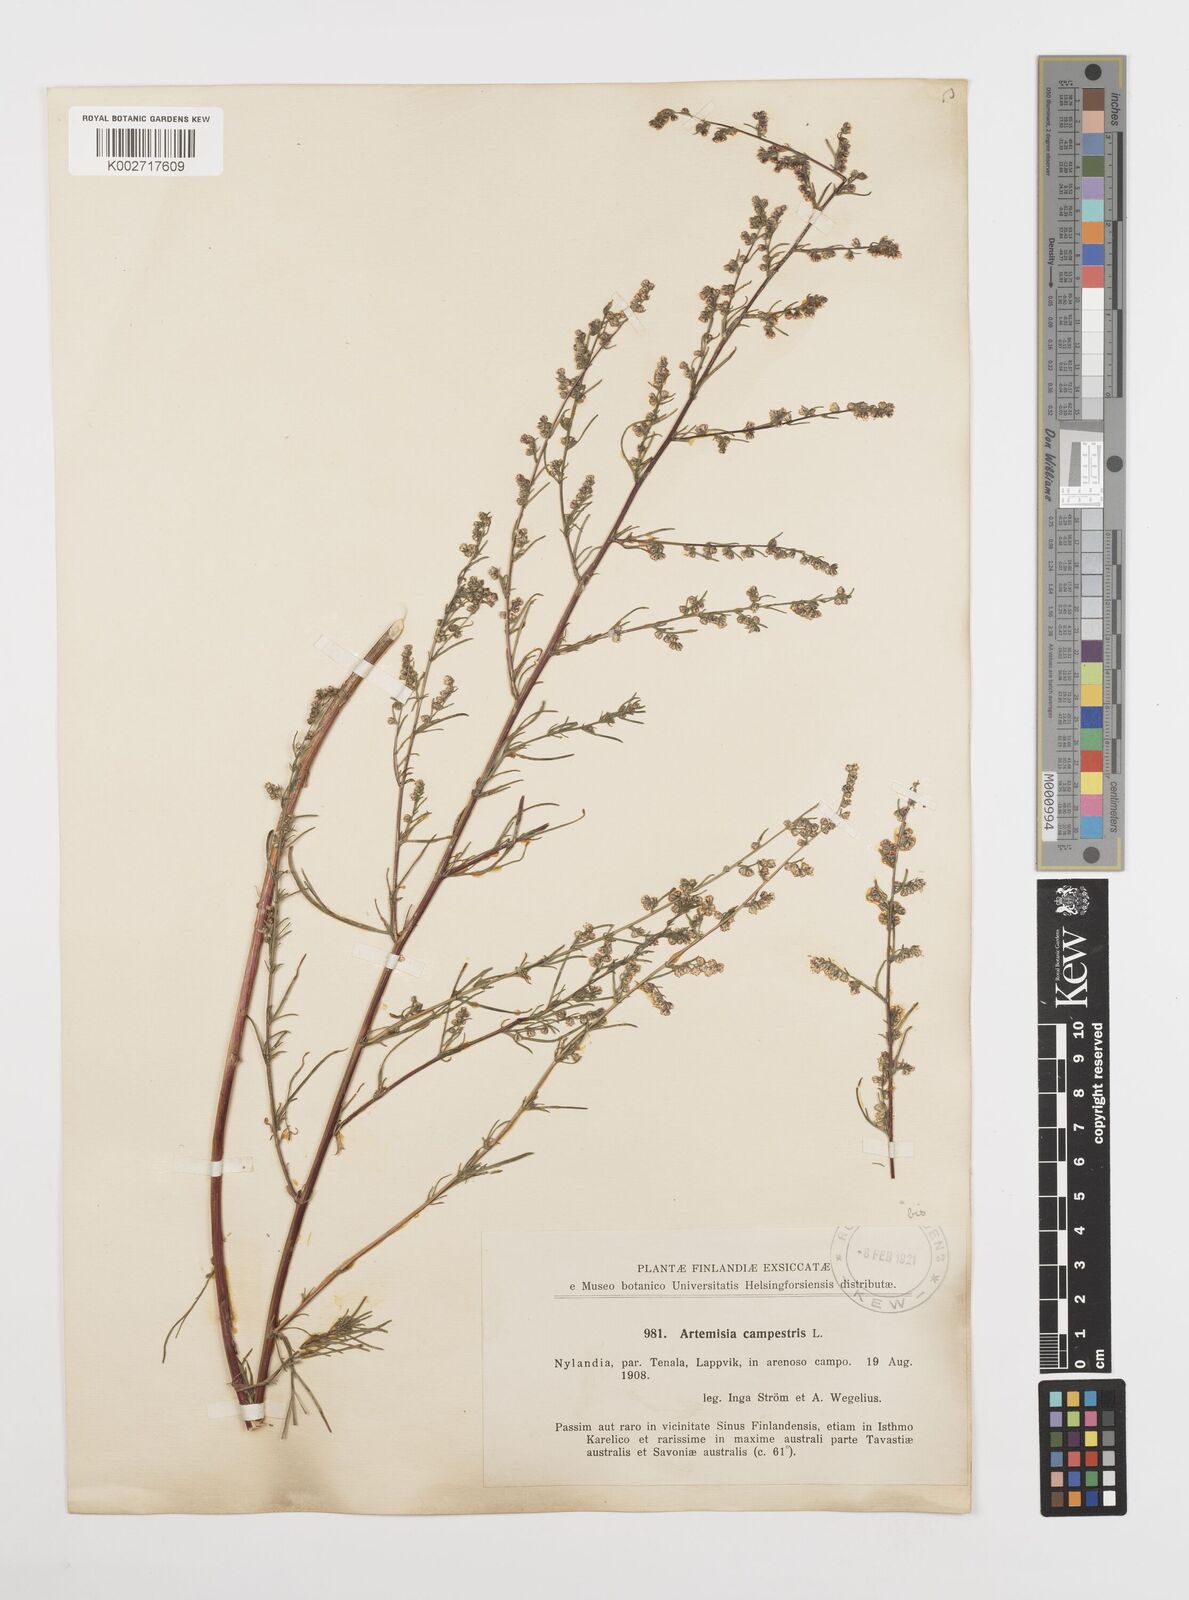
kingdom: Plantae
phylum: Tracheophyta
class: Magnoliopsida
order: Asterales
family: Asteraceae
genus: Artemisia
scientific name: Artemisia campestris
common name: Field wormwood
